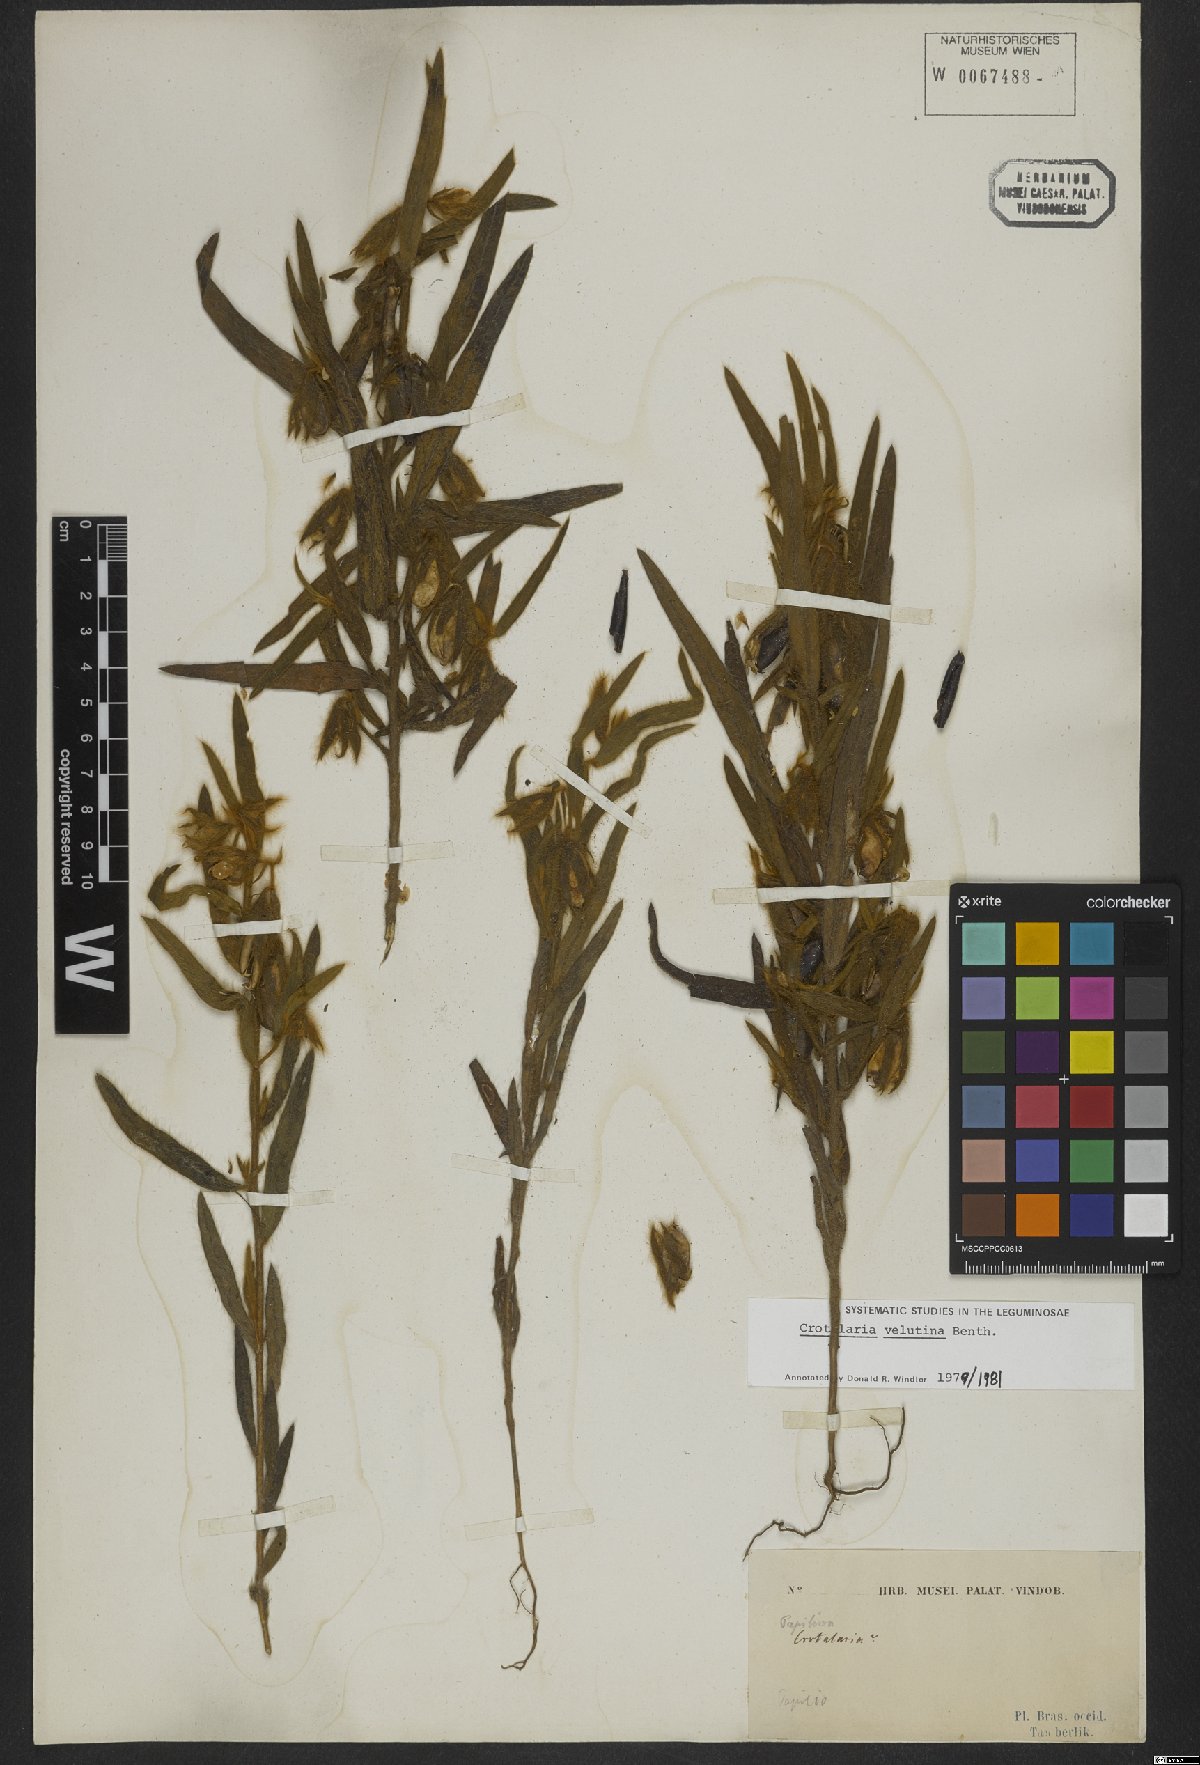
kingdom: Plantae
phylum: Tracheophyta
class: Magnoliopsida
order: Fabales
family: Fabaceae
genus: Crotalaria
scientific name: Crotalaria velutina
